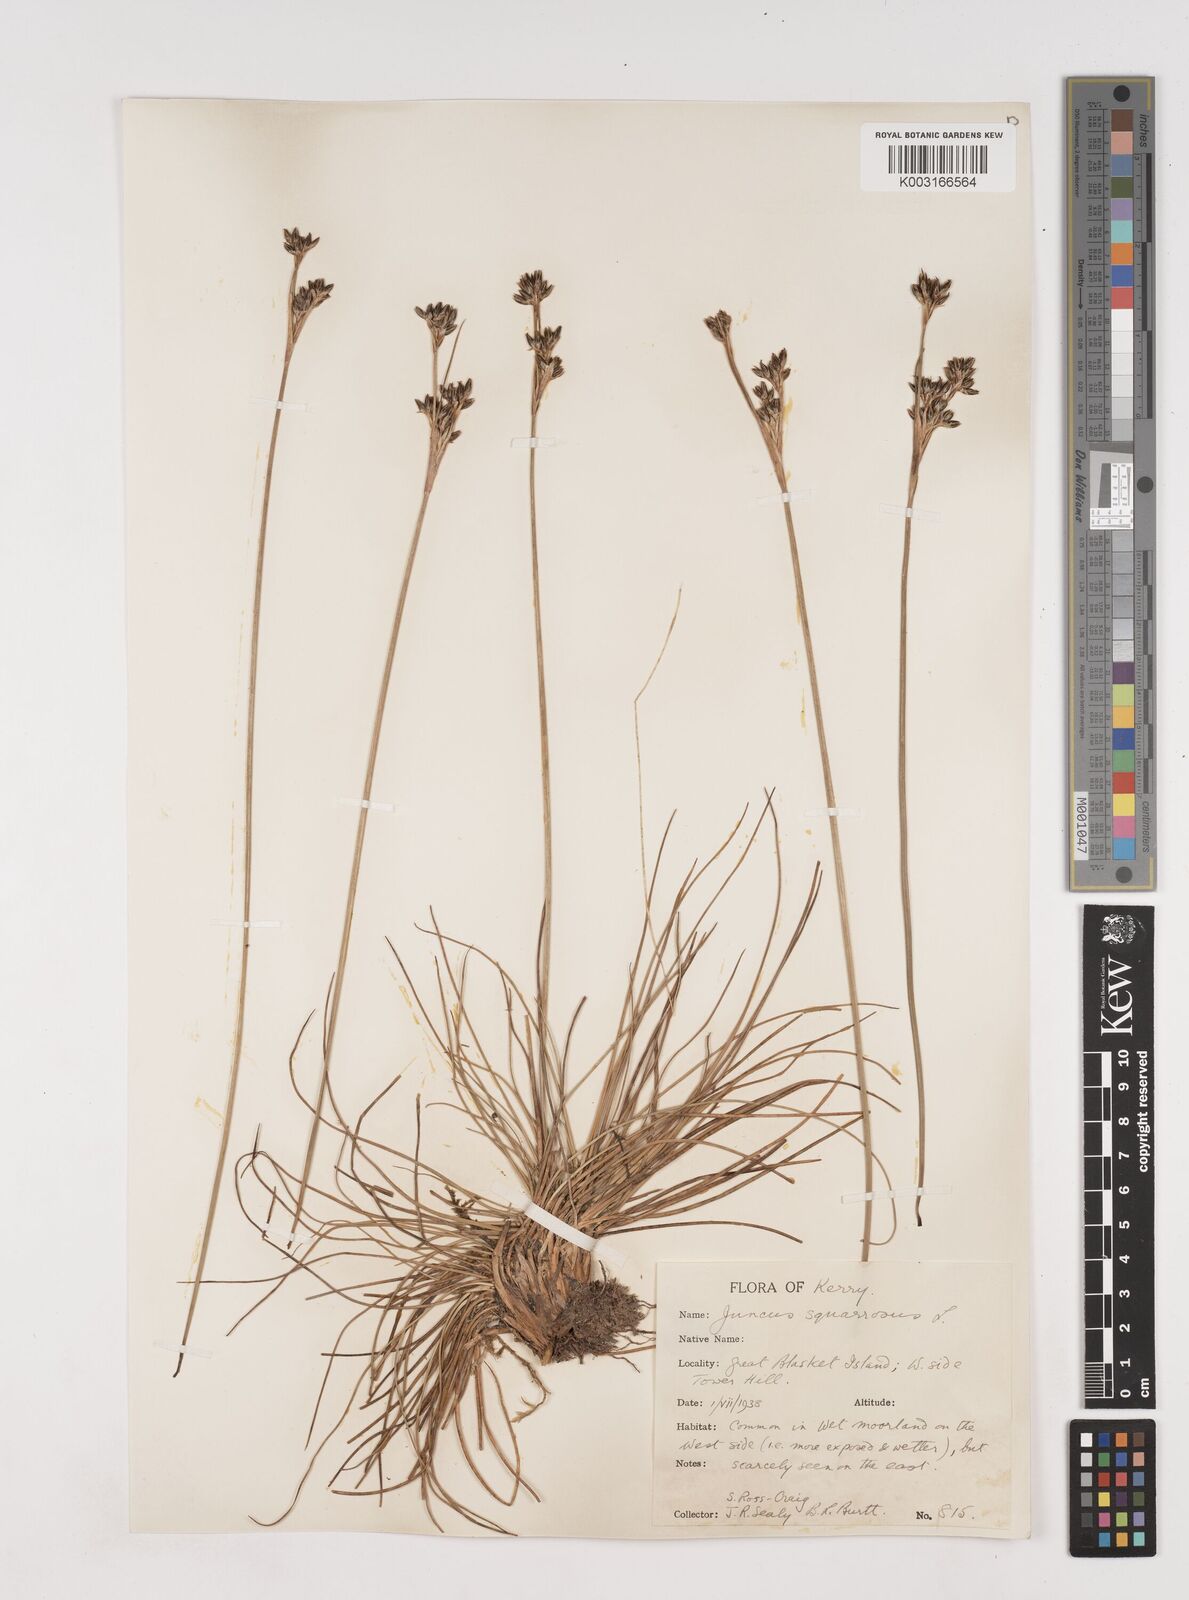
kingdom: Plantae
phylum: Tracheophyta
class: Liliopsida
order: Poales
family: Juncaceae
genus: Juncus
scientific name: Juncus squarrosus
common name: Heath rush
